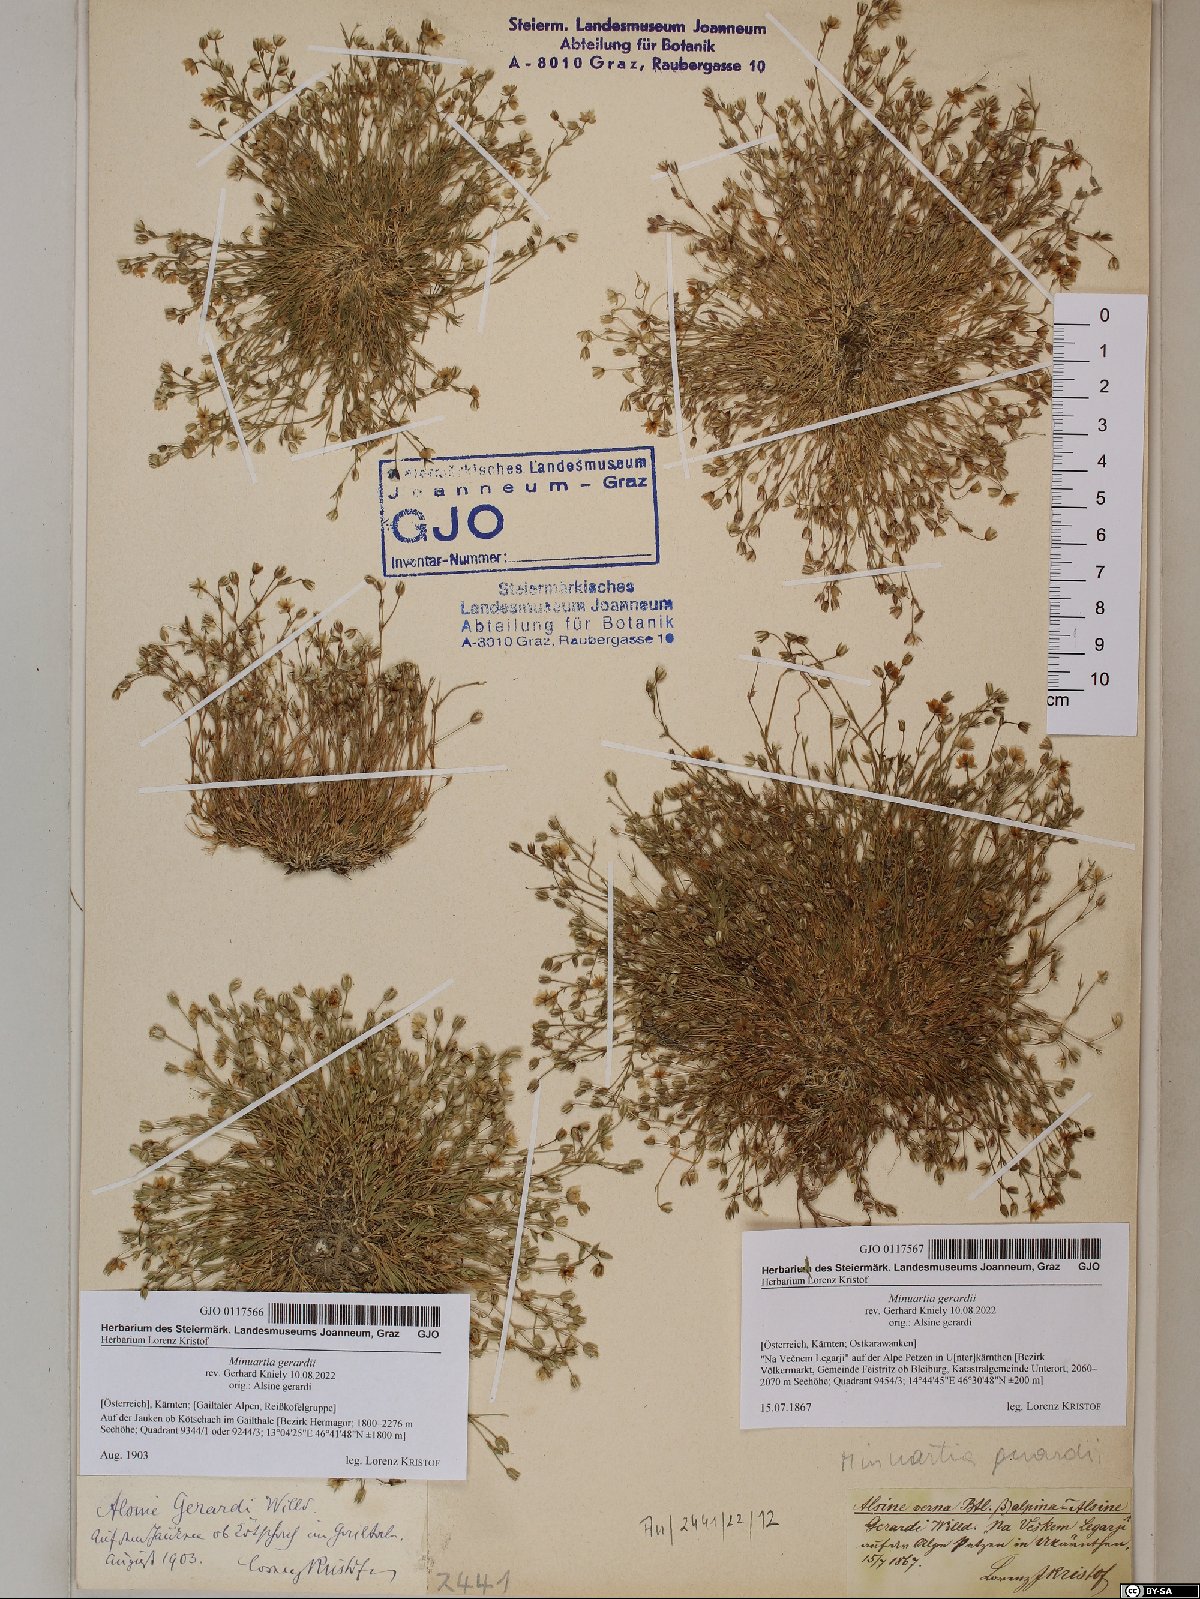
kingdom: Plantae
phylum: Tracheophyta
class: Magnoliopsida
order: Caryophyllales
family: Caryophyllaceae
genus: Sabulina
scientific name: Sabulina verna
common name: Spring sandwort
